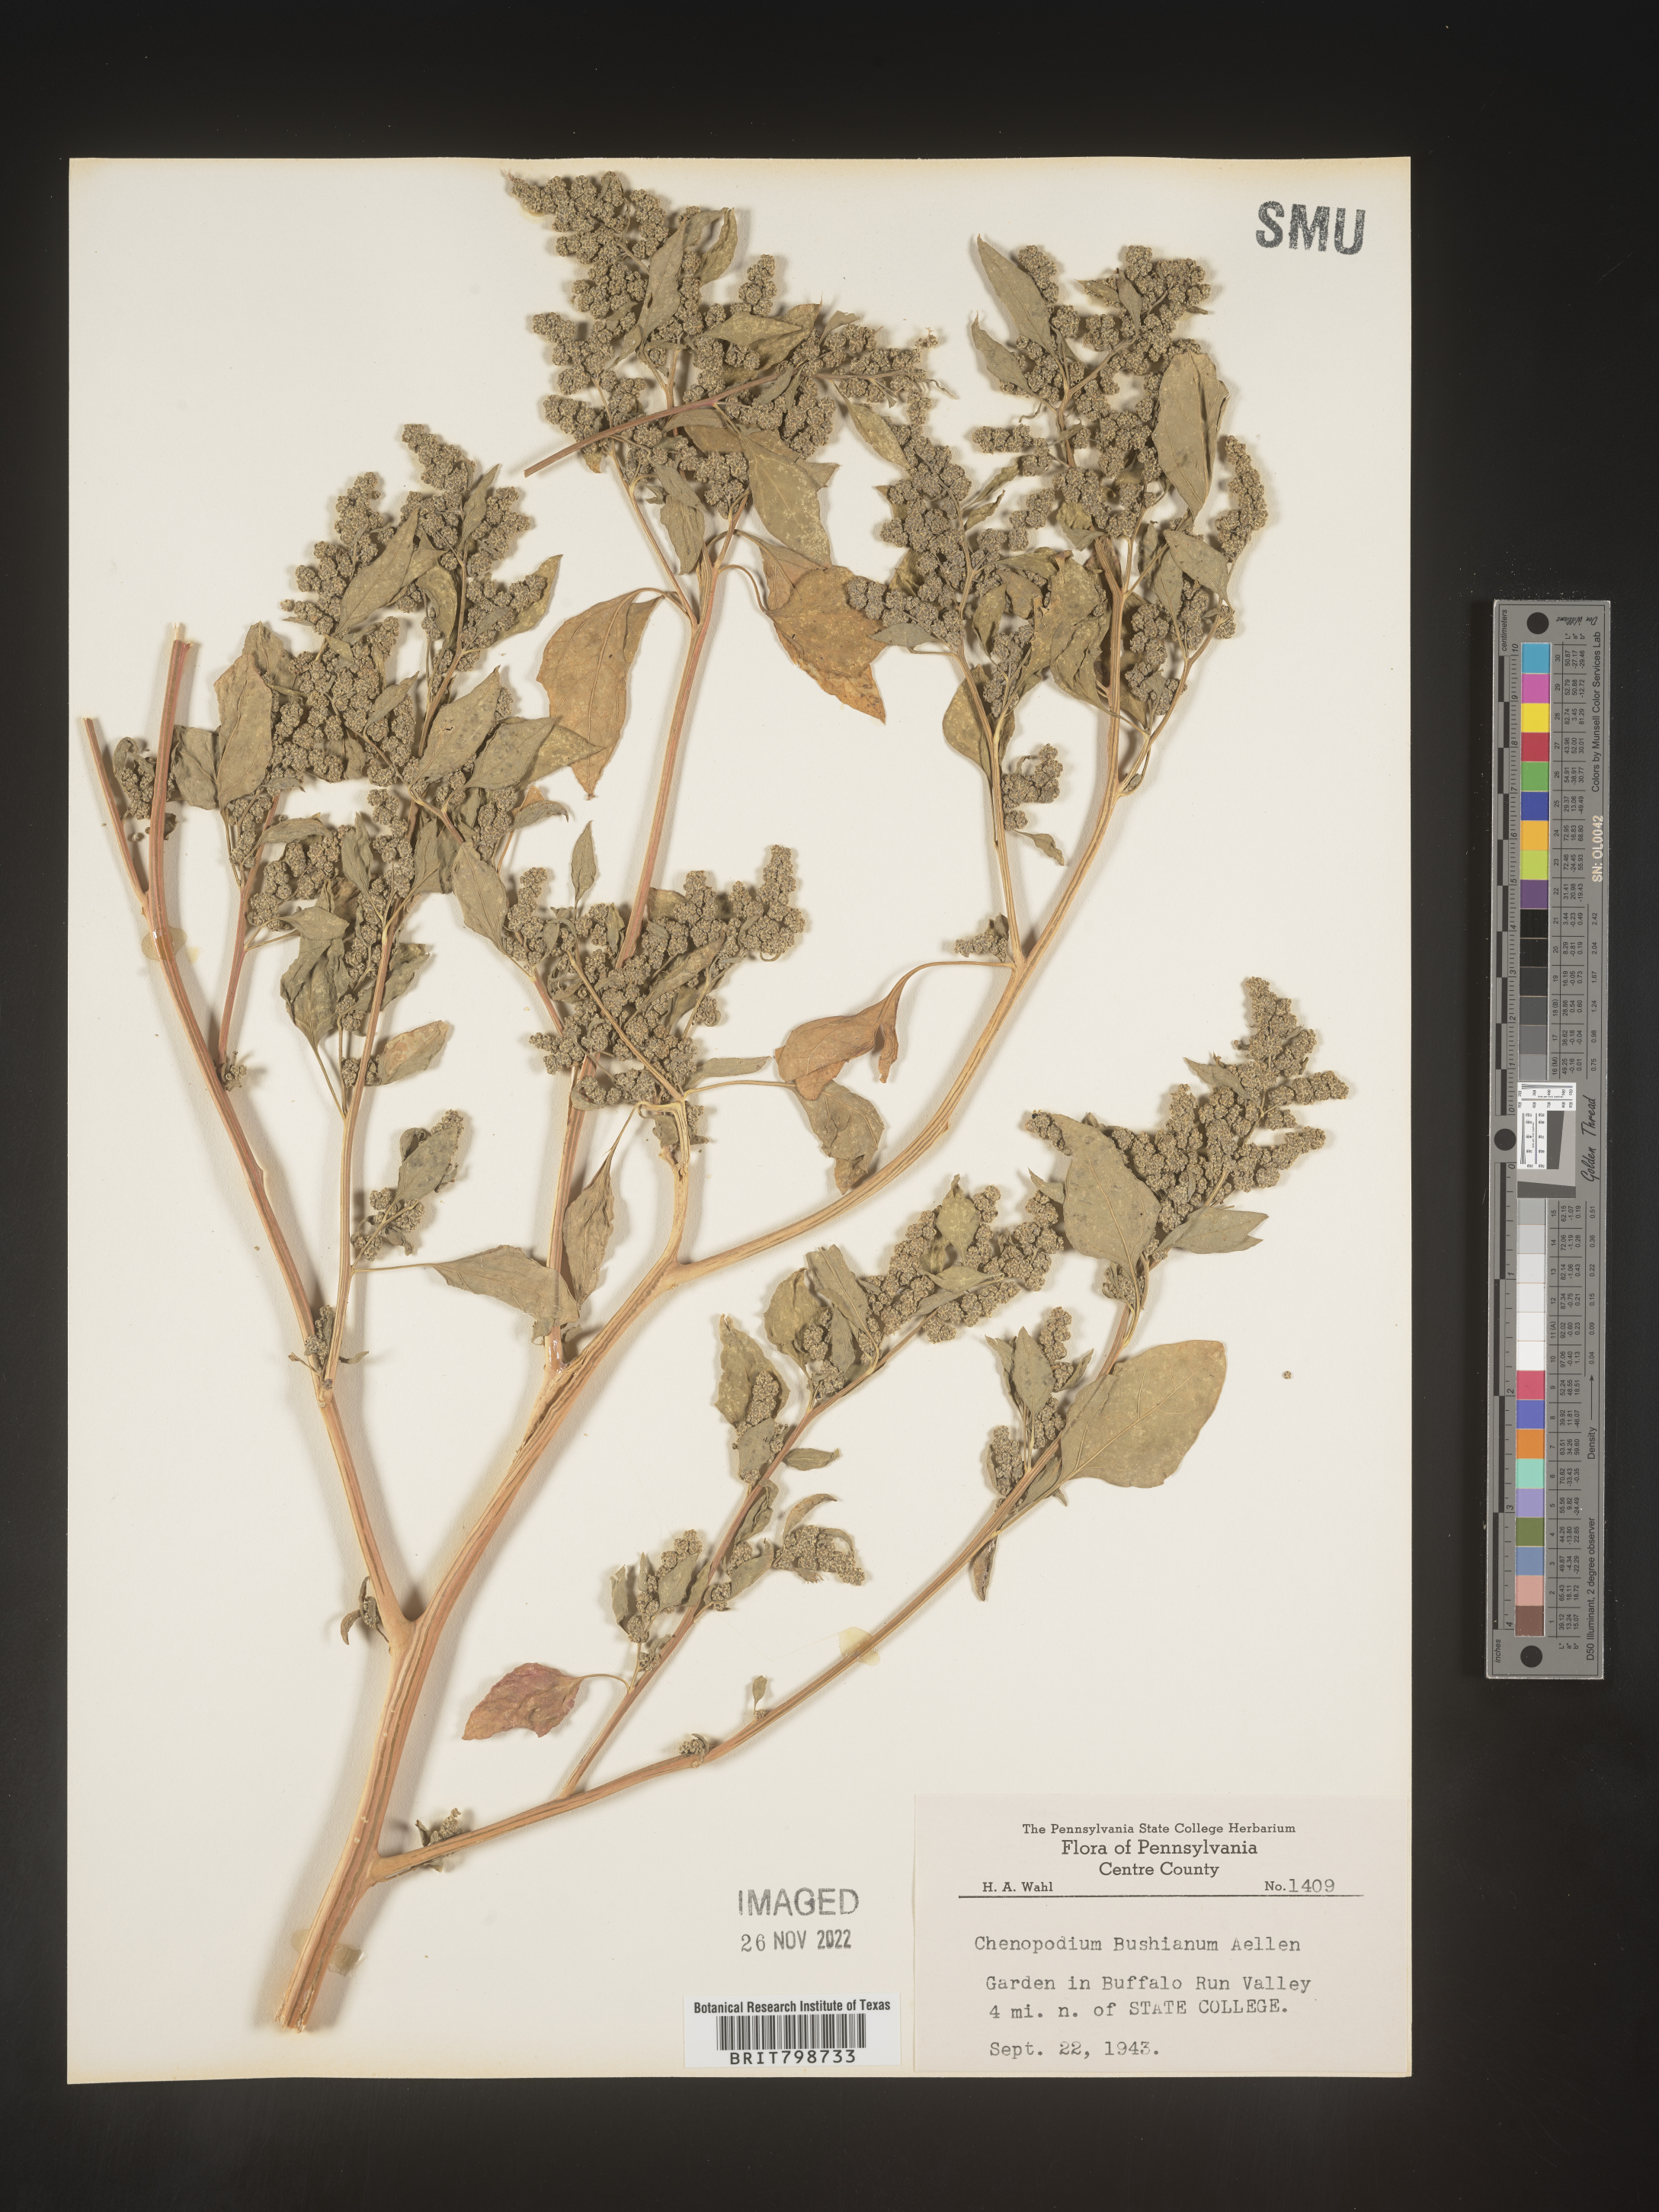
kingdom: Plantae
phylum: Tracheophyta
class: Magnoliopsida
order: Caryophyllales
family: Amaranthaceae
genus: Chenopodium
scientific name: Chenopodium berlandieri
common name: Pit-seed goosefoot
